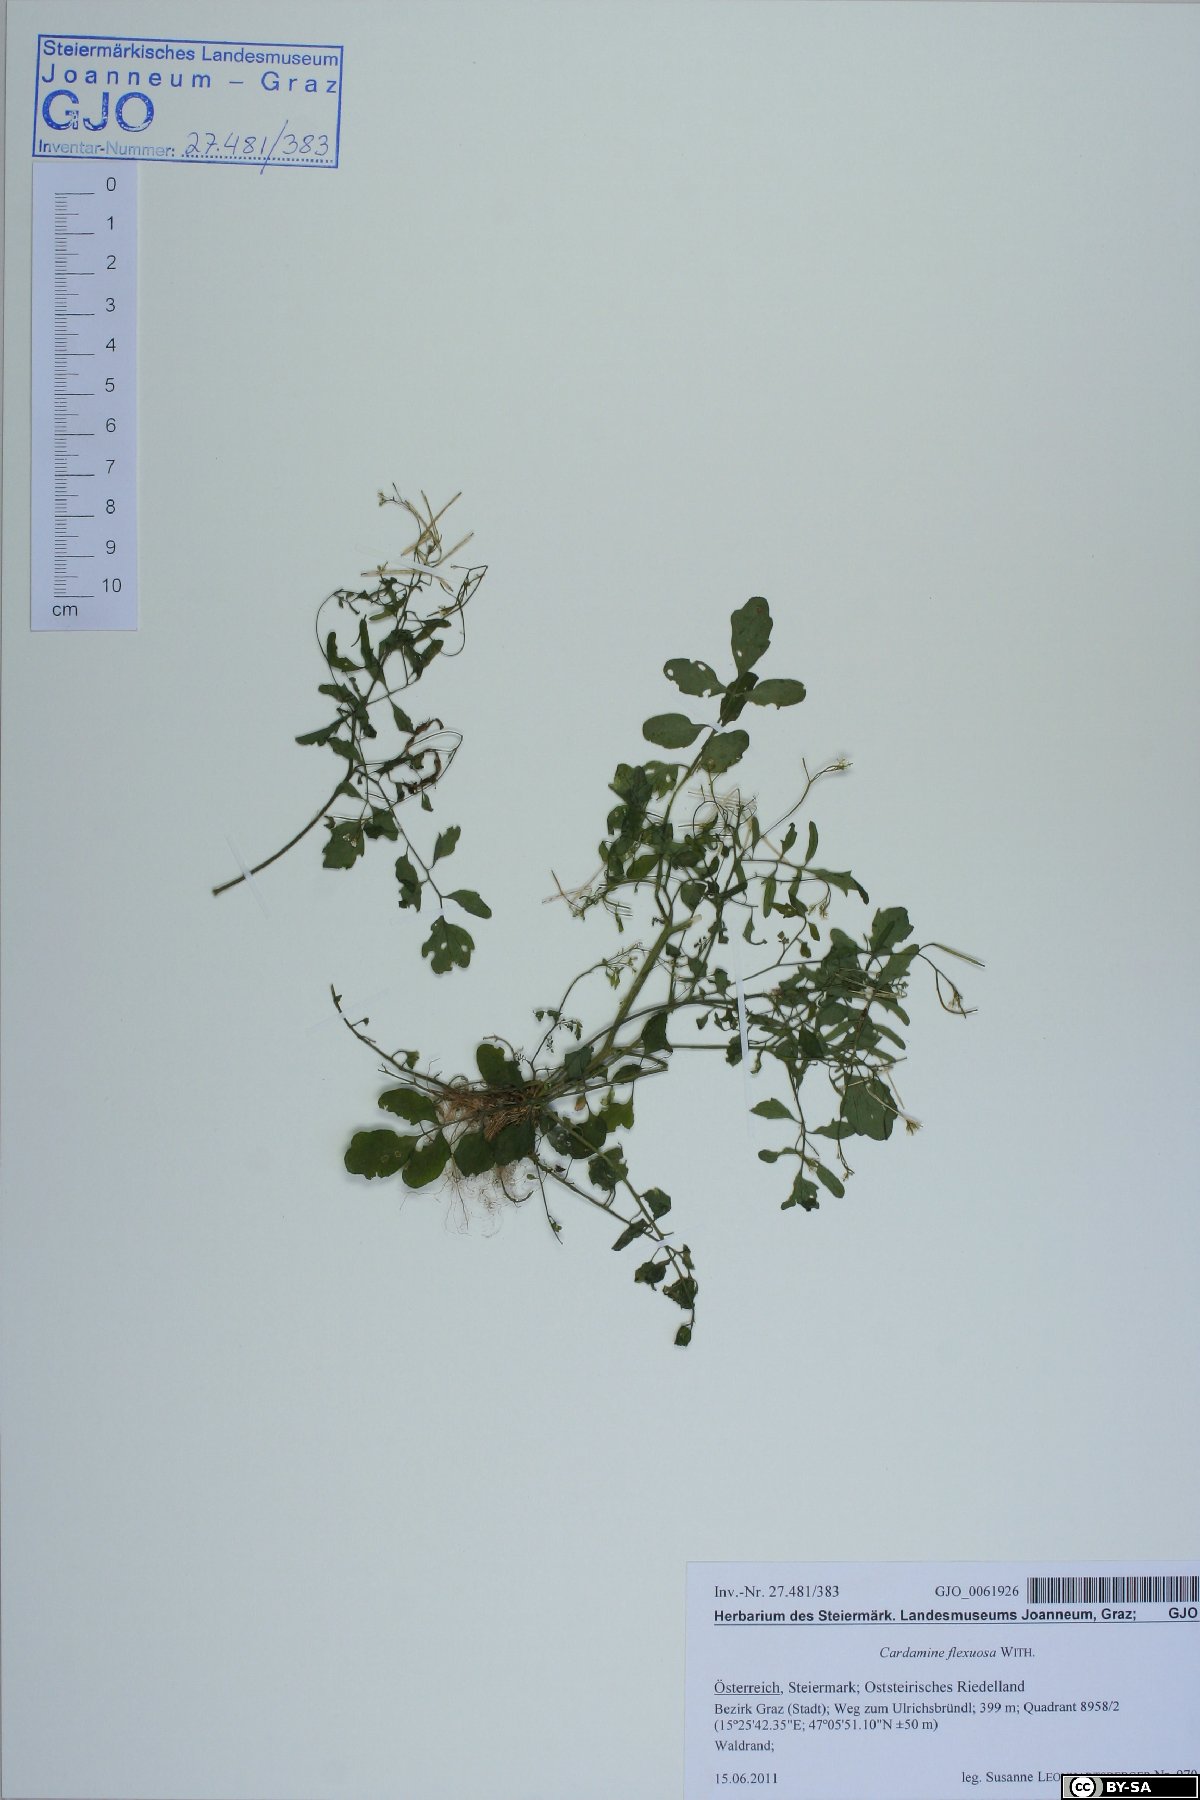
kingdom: Plantae
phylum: Tracheophyta
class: Magnoliopsida
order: Brassicales
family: Brassicaceae
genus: Cardamine
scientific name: Cardamine flexuosa
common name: Woodland bittercress
